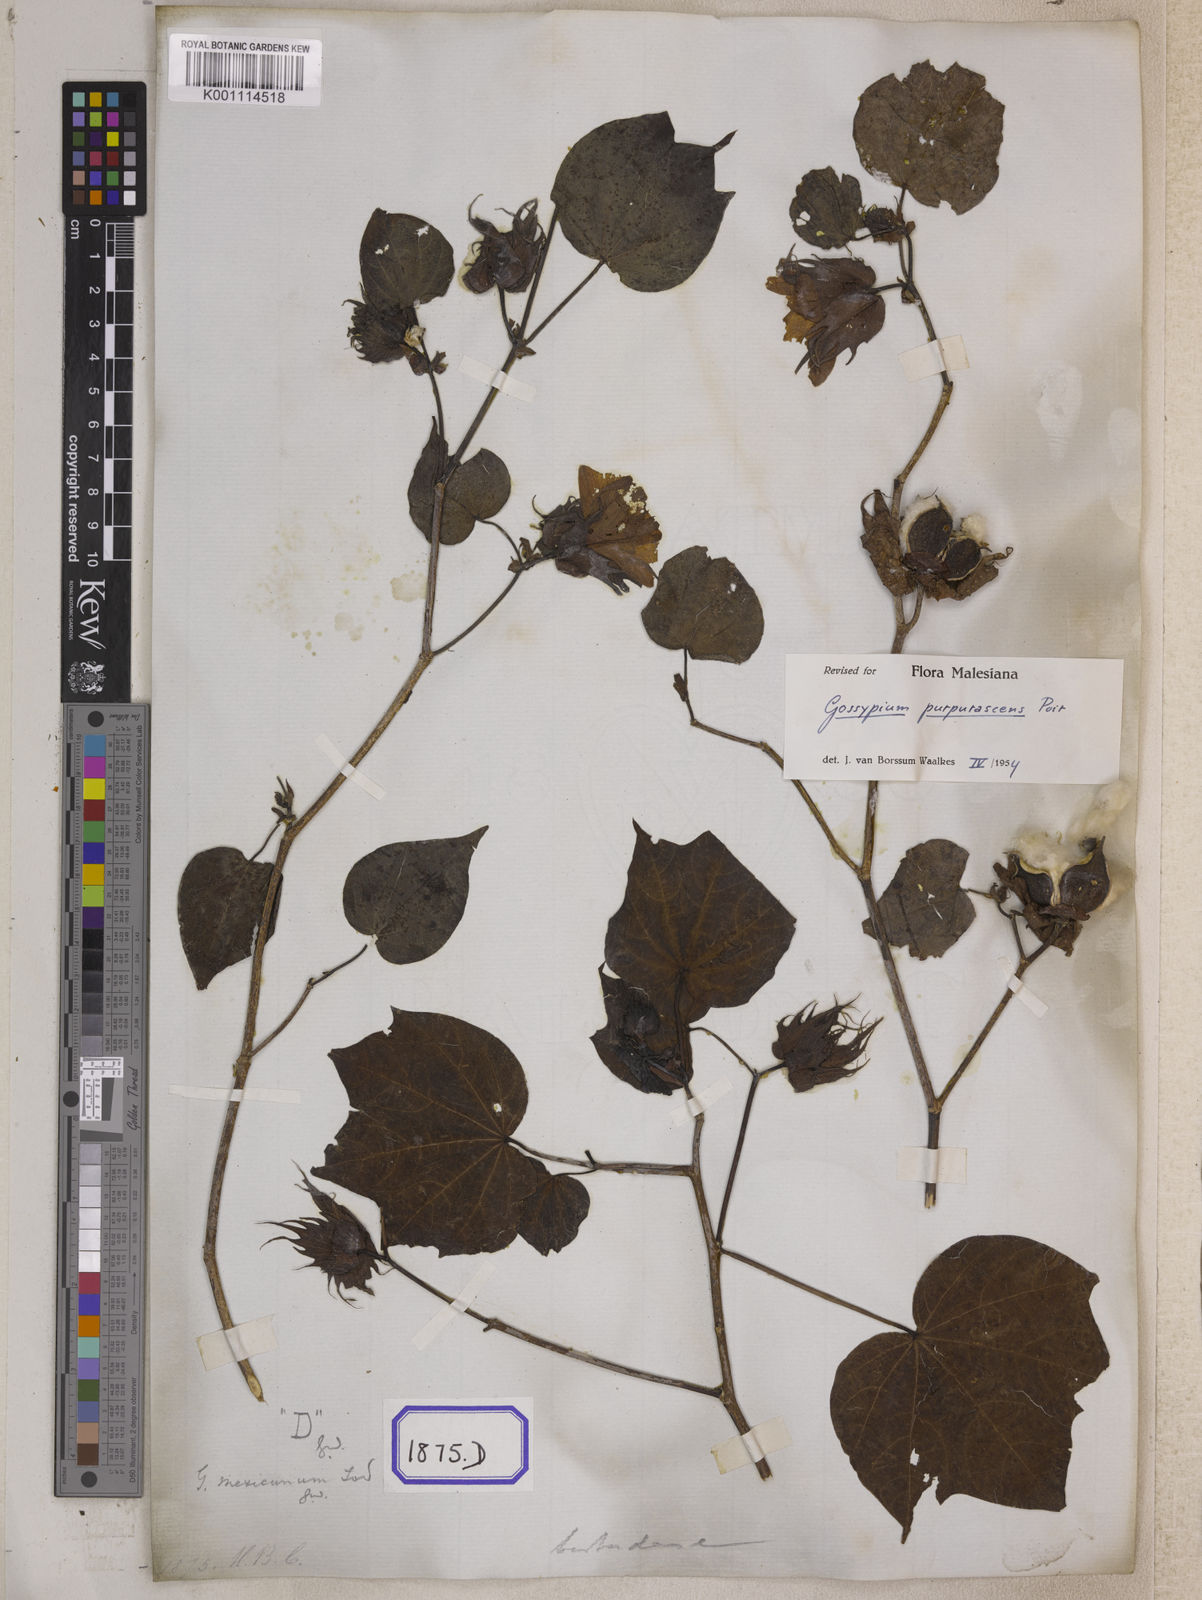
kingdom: Plantae
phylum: Tracheophyta
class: Magnoliopsida
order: Malvales
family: Malvaceae
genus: Gossypium
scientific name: Gossypium barbadense
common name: Creole cotton
